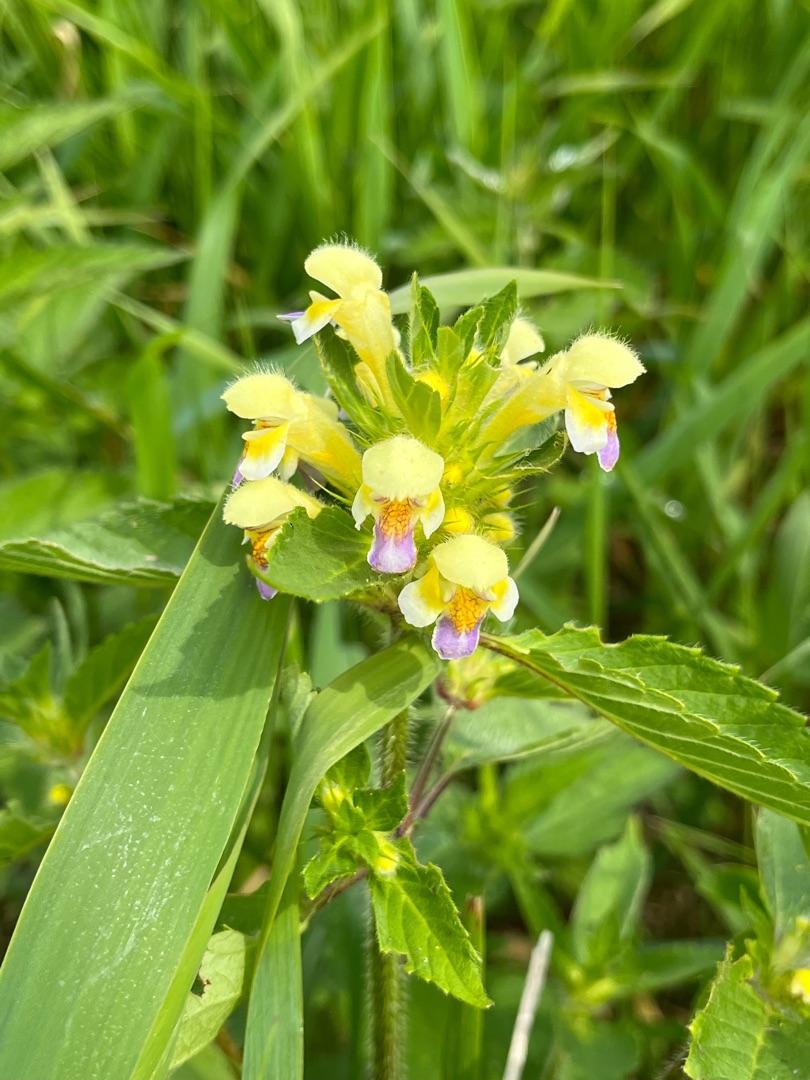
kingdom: Plantae
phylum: Tracheophyta
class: Magnoliopsida
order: Lamiales
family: Lamiaceae
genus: Galeopsis
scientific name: Galeopsis speciosa
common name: Hamp-hanekro
